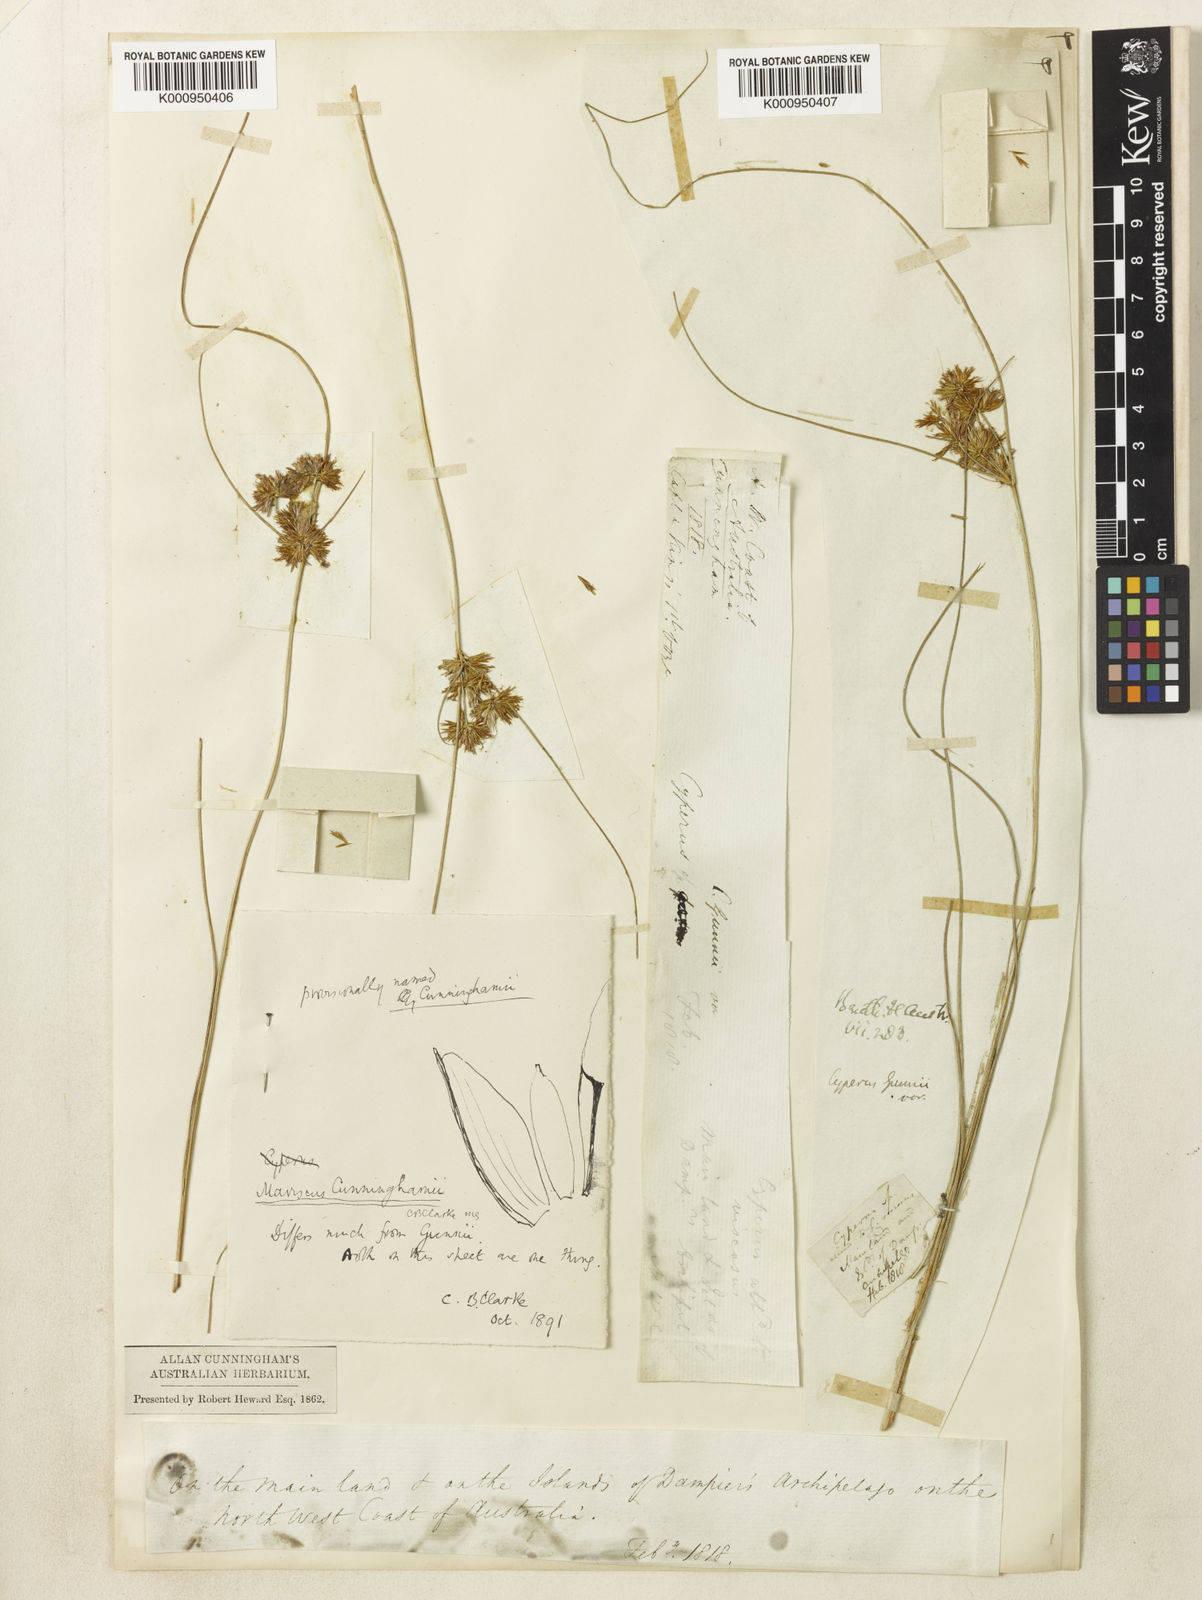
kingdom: Plantae
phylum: Tracheophyta
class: Liliopsida
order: Poales
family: Cyperaceae
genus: Cyperus
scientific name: Cyperus cunninghamii
